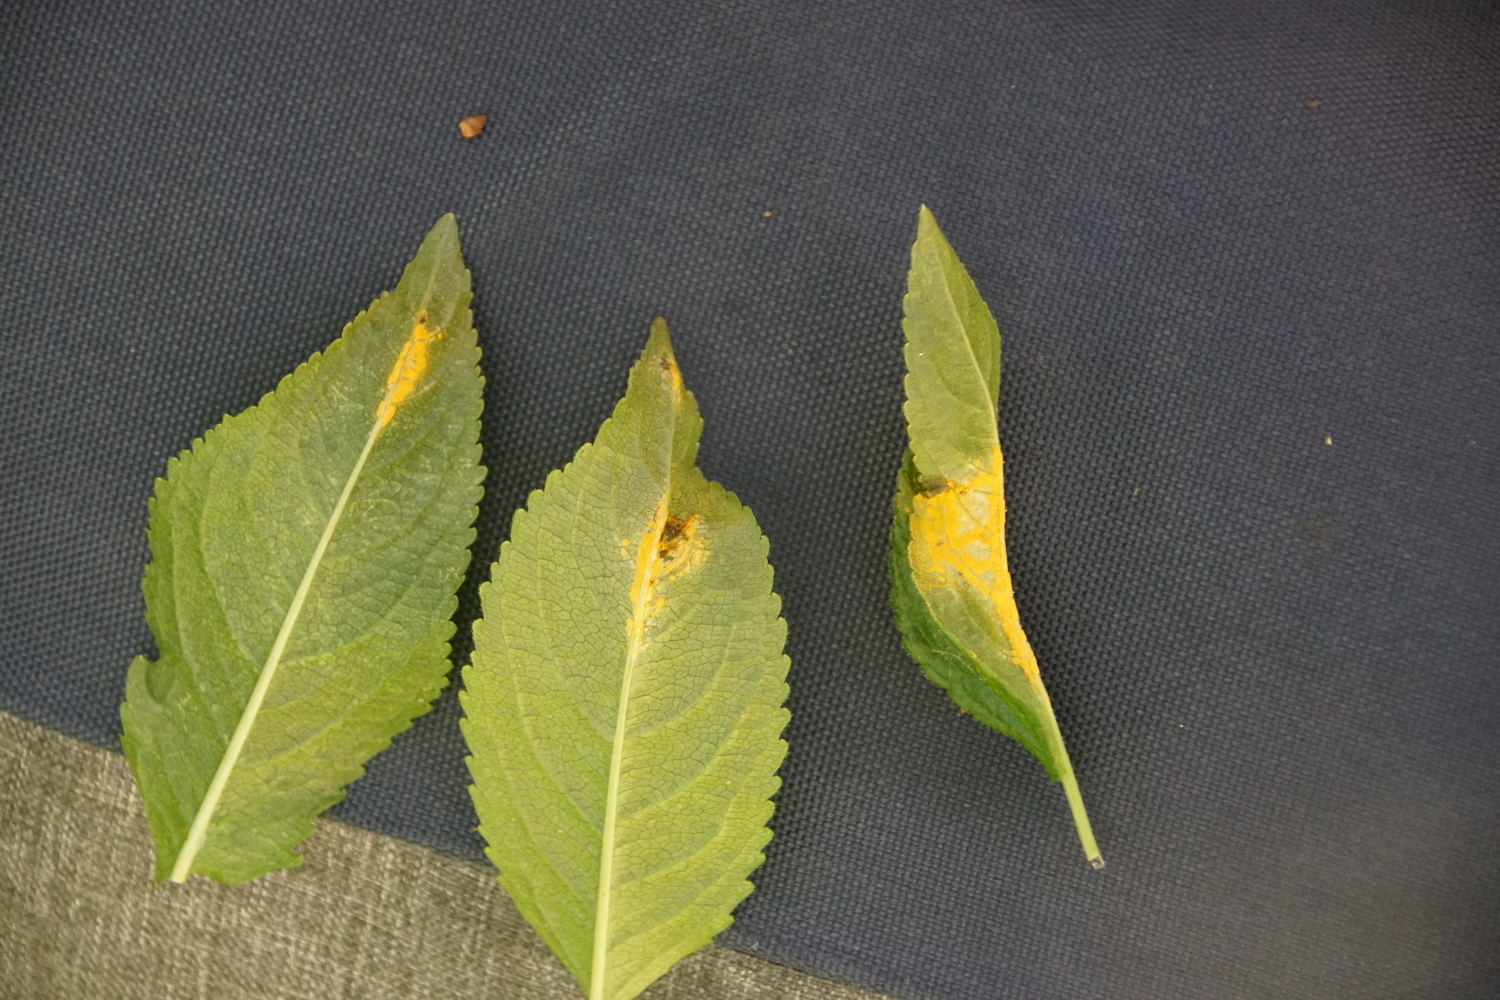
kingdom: Fungi
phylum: Basidiomycota
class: Pucciniomycetes
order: Pucciniales
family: Melampsoraceae
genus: Melampsora
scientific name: Melampsora populnea
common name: poppel-skorperust
